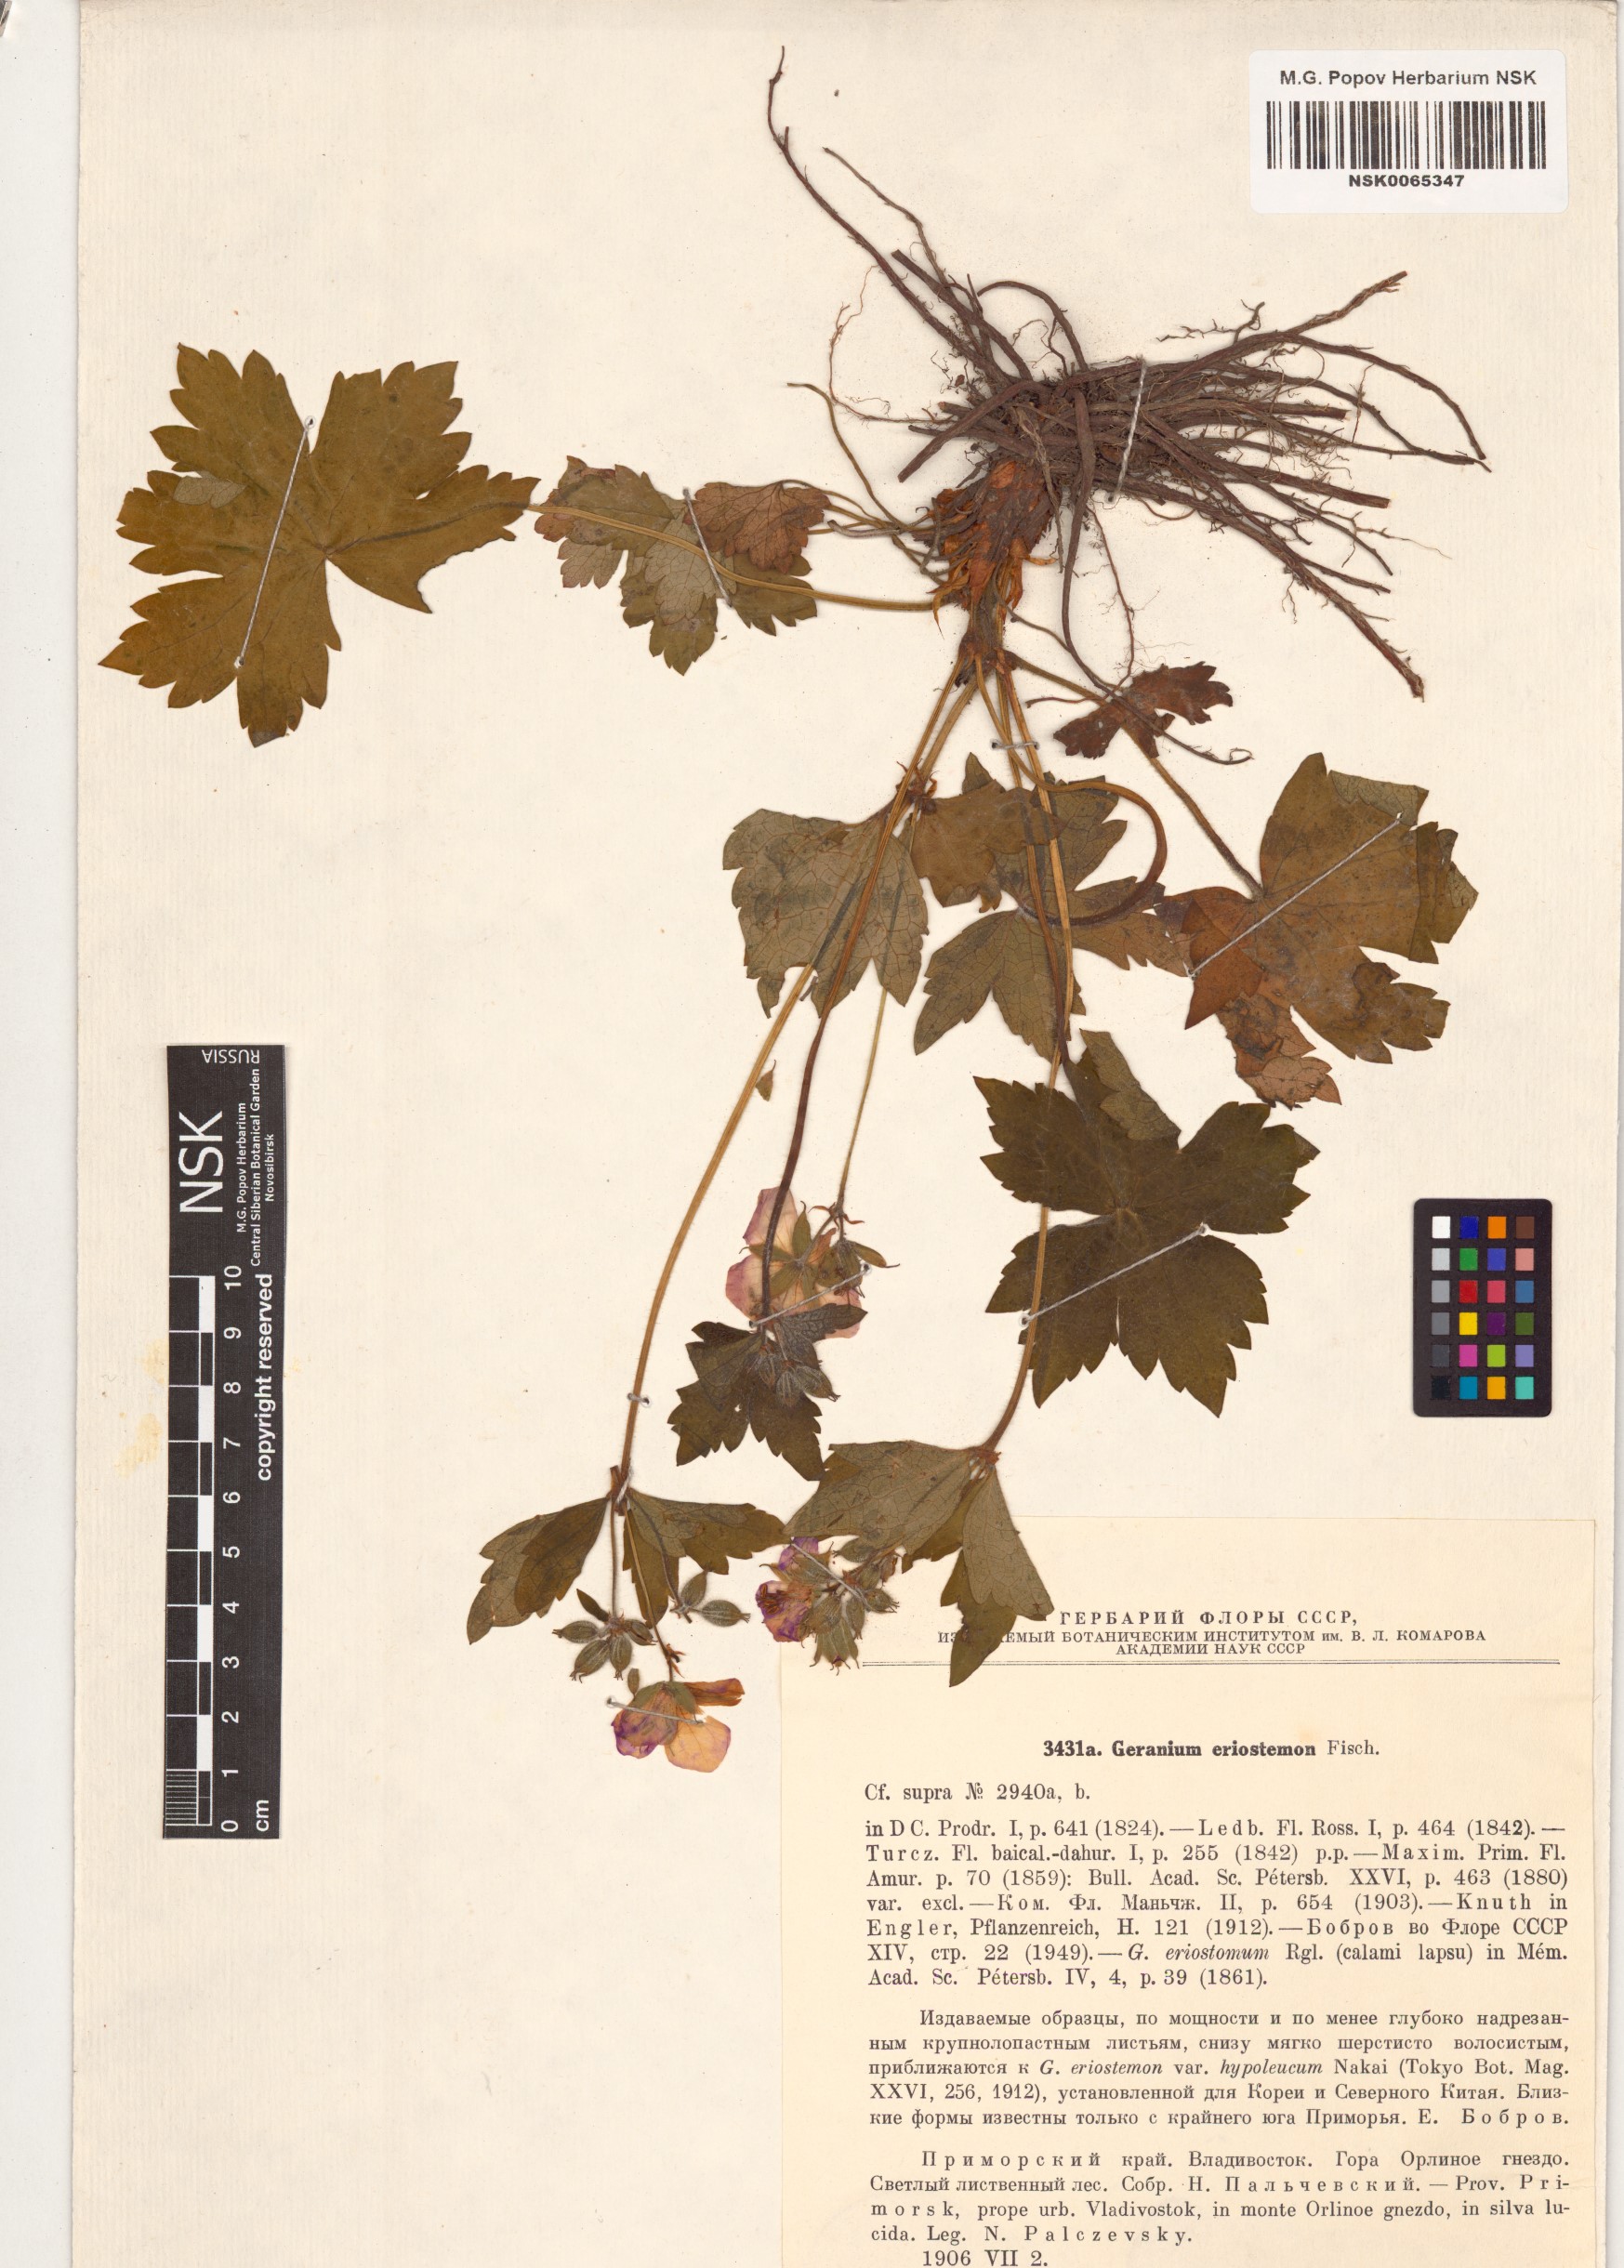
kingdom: Plantae
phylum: Tracheophyta
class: Magnoliopsida
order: Geraniales
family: Geraniaceae
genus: Geranium
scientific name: Geranium
